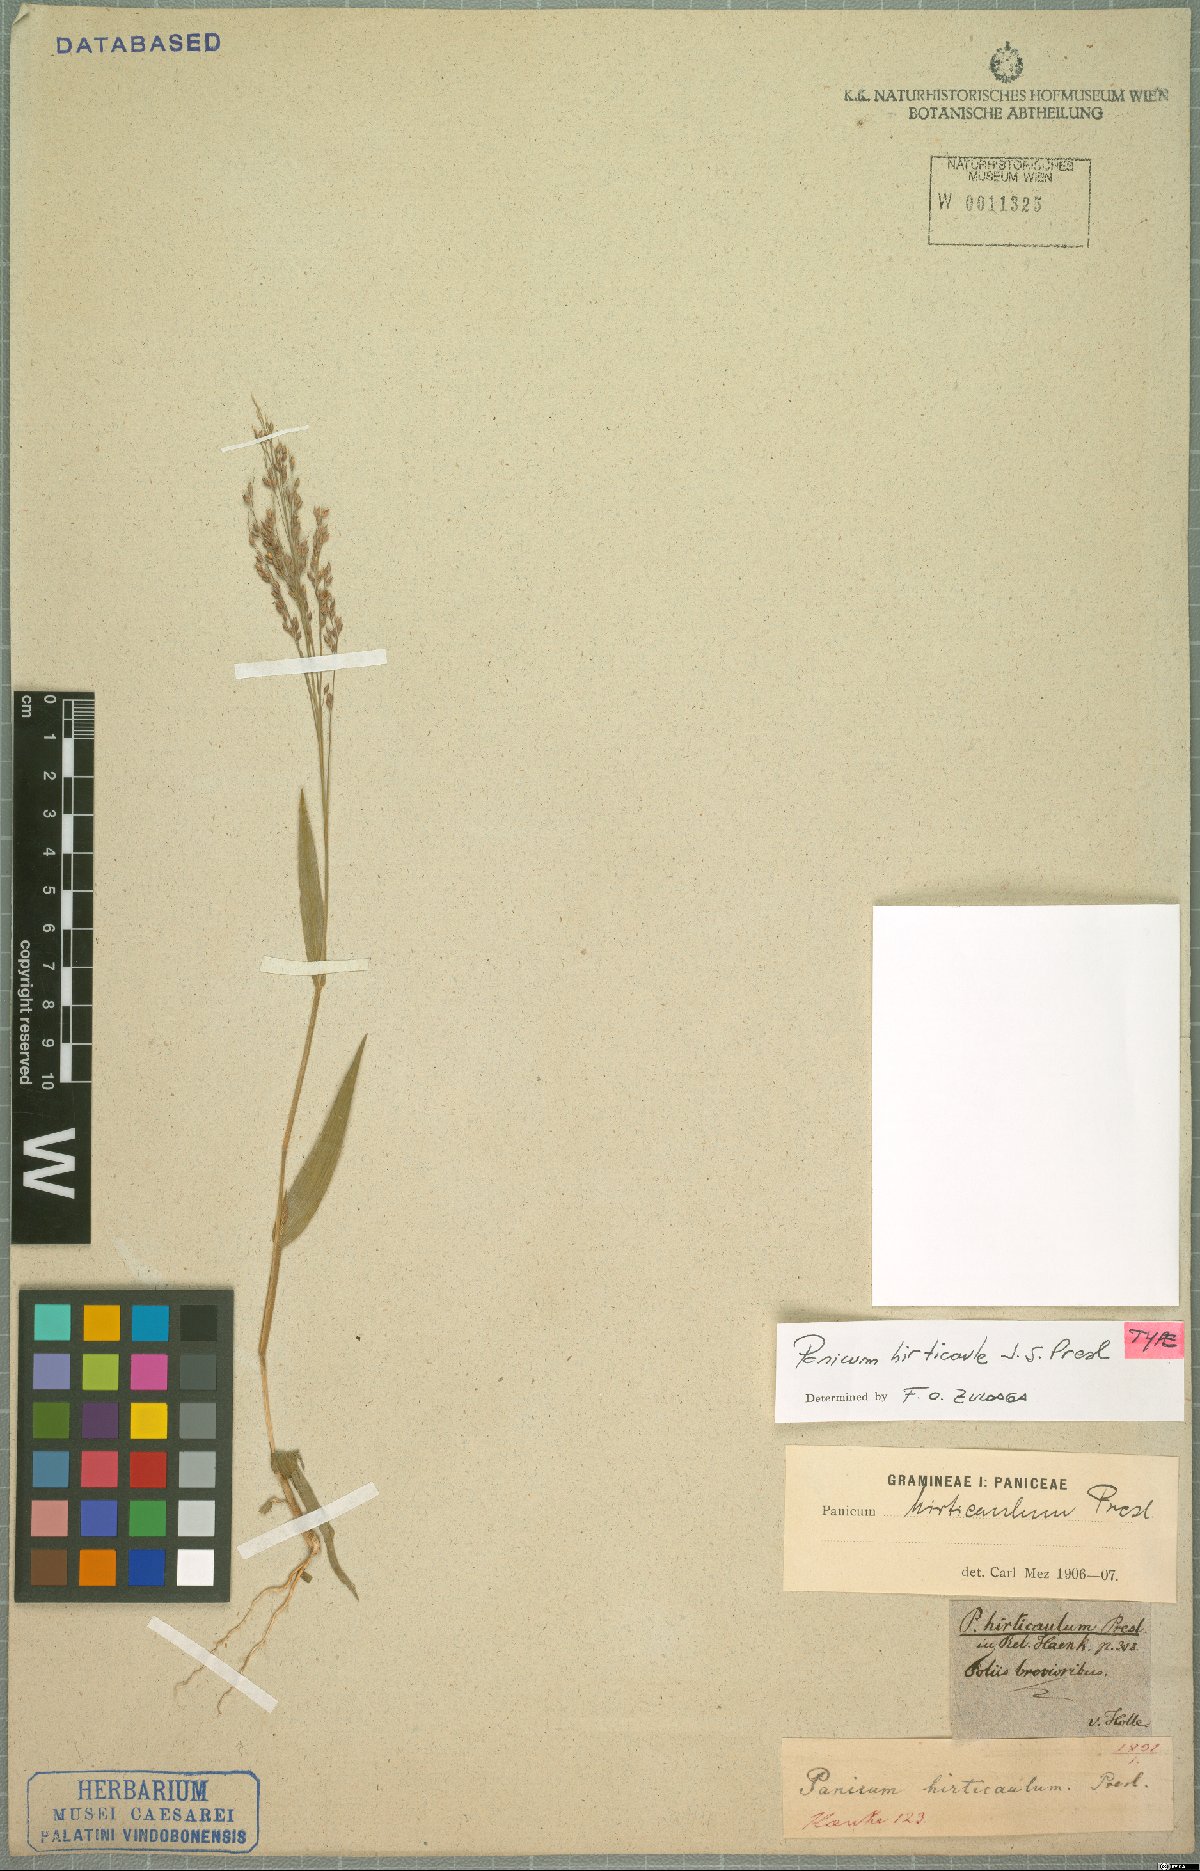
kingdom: Plantae
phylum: Tracheophyta
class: Liliopsida
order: Poales
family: Poaceae
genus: Panicum
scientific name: Panicum hirticaule
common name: Rough-stalk witchgrass
